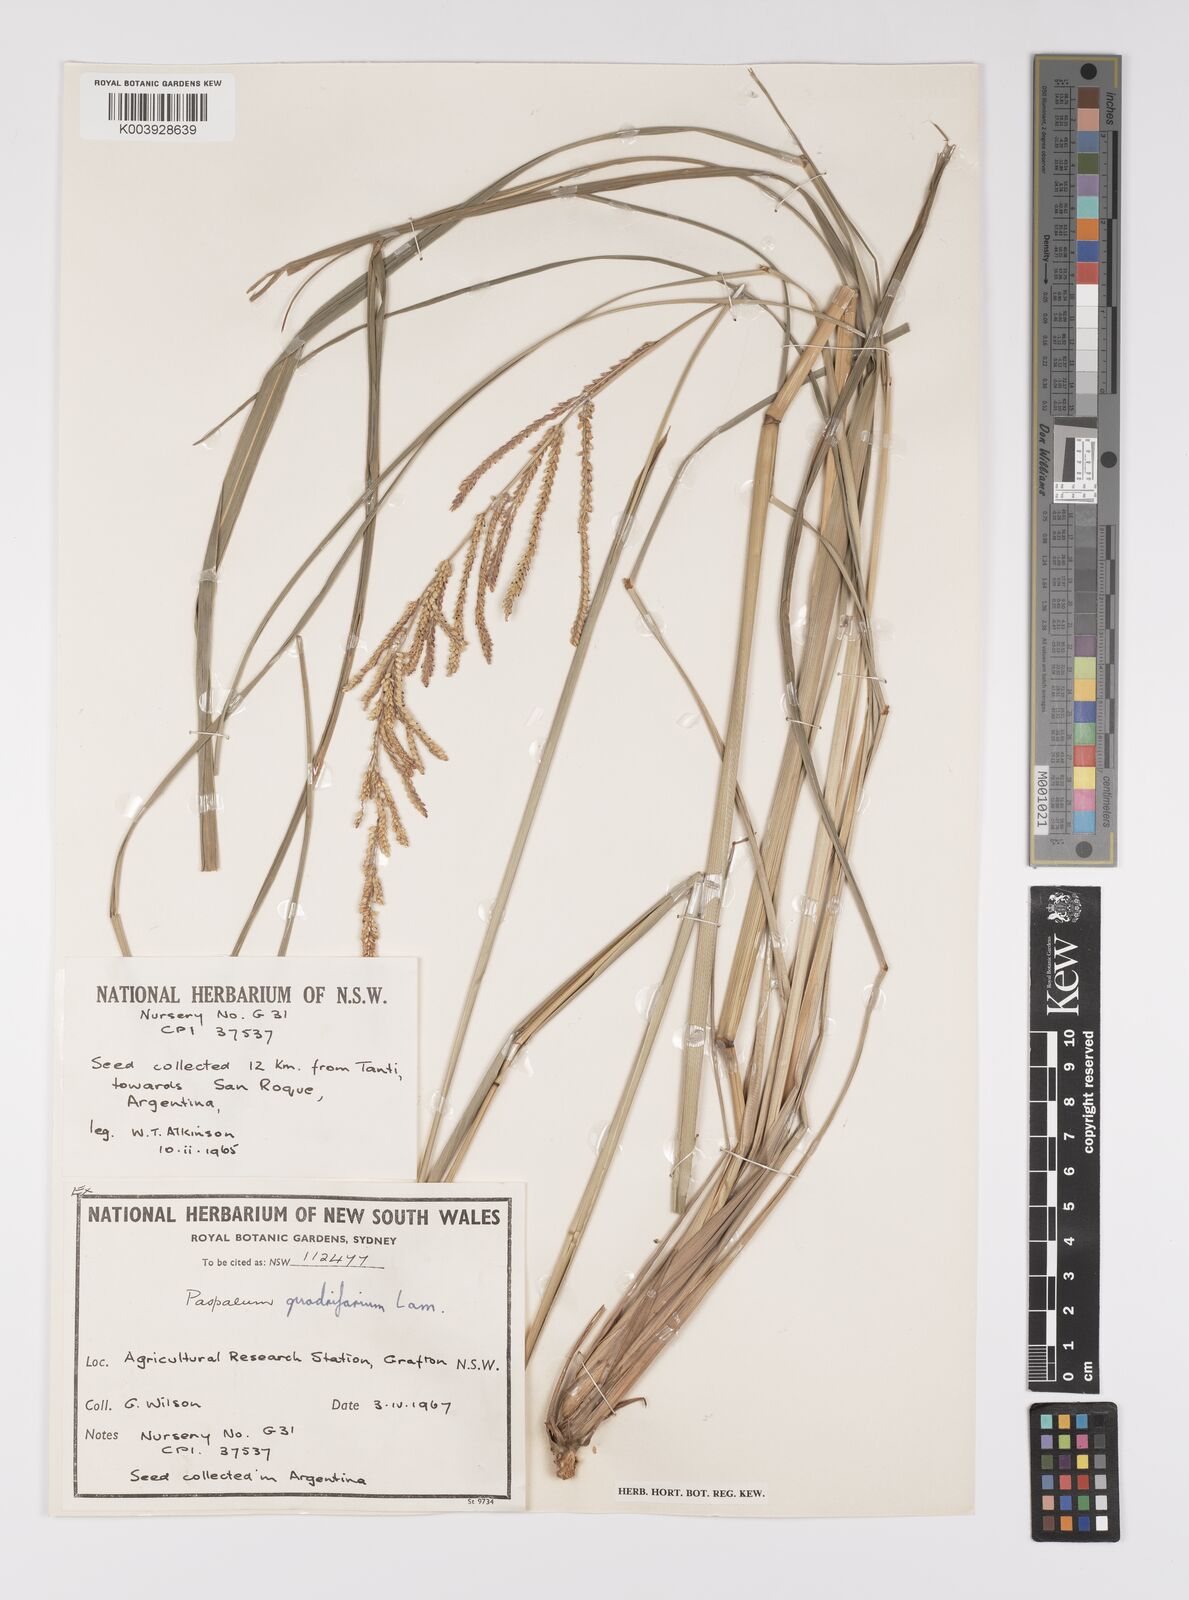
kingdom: Plantae
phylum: Tracheophyta
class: Liliopsida
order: Poales
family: Poaceae
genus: Paspalum
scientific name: Paspalum quadrifarium
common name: Tussock paspalum
